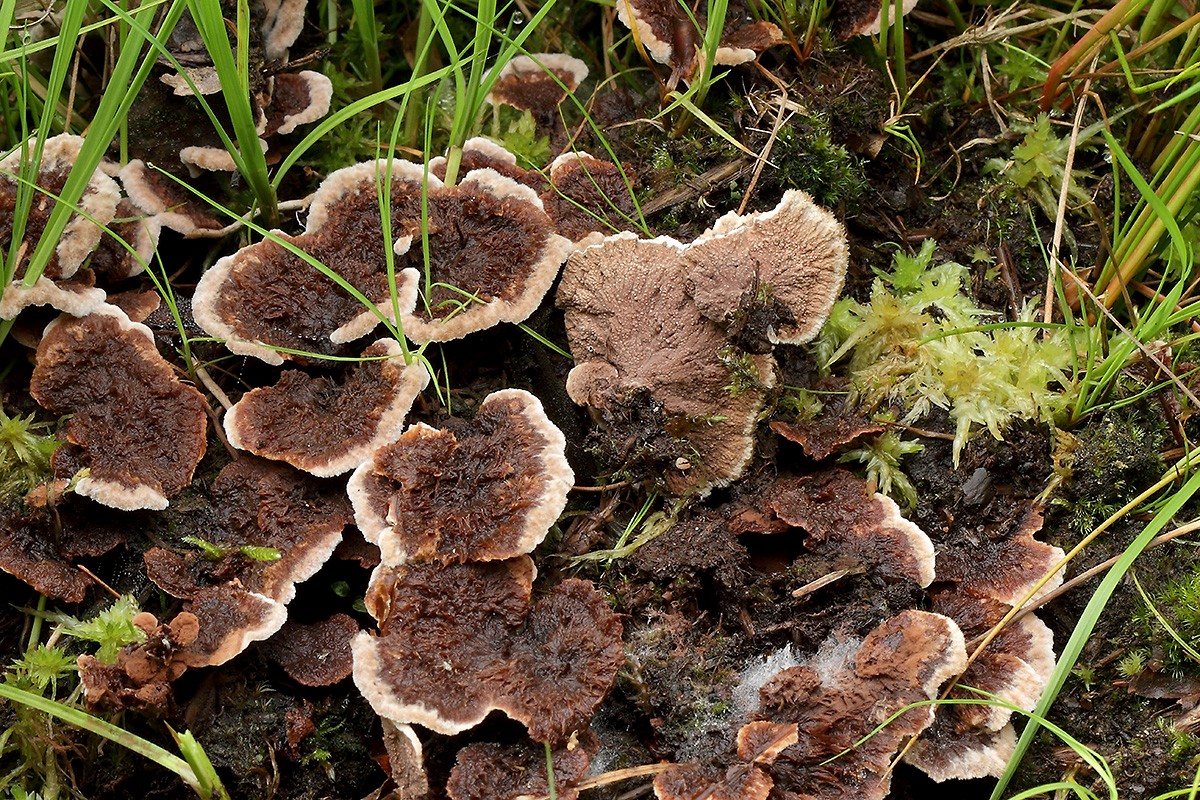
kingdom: Fungi
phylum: Basidiomycota
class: Agaricomycetes
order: Thelephorales
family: Thelephoraceae
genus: Thelephora
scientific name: Thelephora terrestris
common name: fliget frynsesvamp
